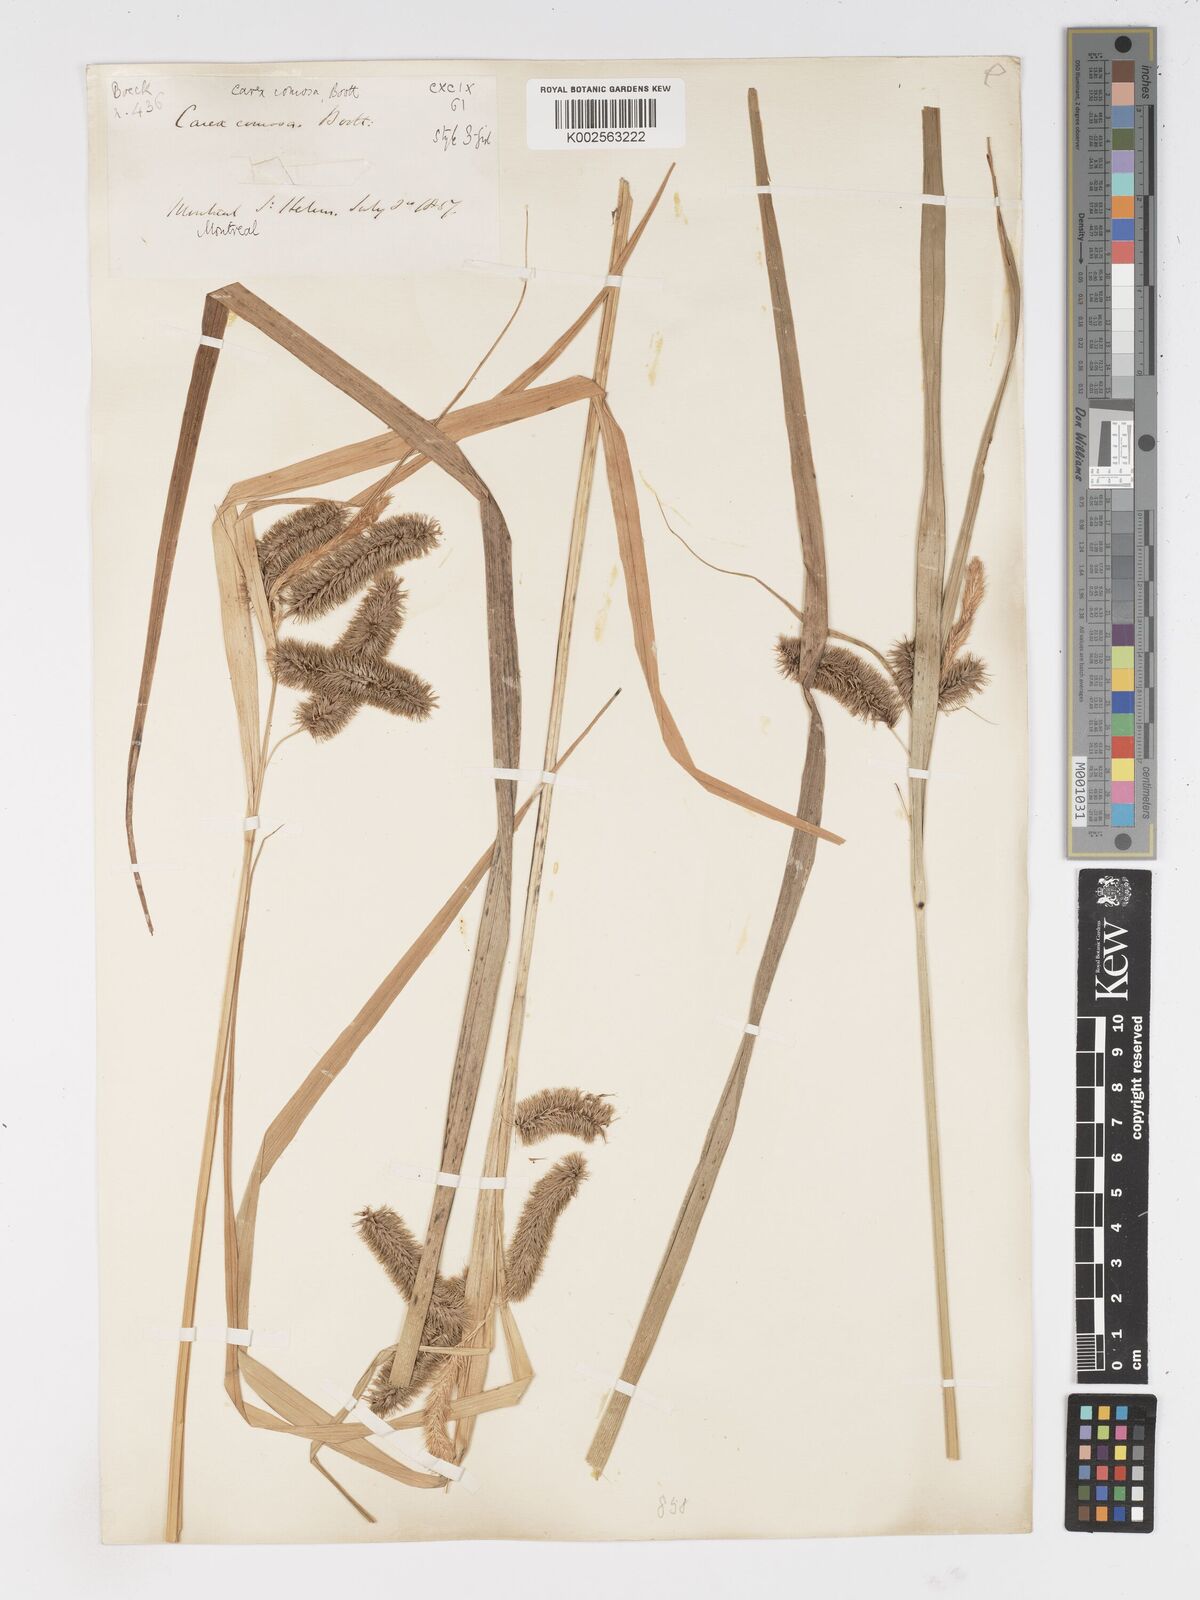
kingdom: Plantae
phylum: Tracheophyta
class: Liliopsida
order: Poales
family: Cyperaceae
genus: Carex
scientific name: Carex comosa
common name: Bristly sedge
